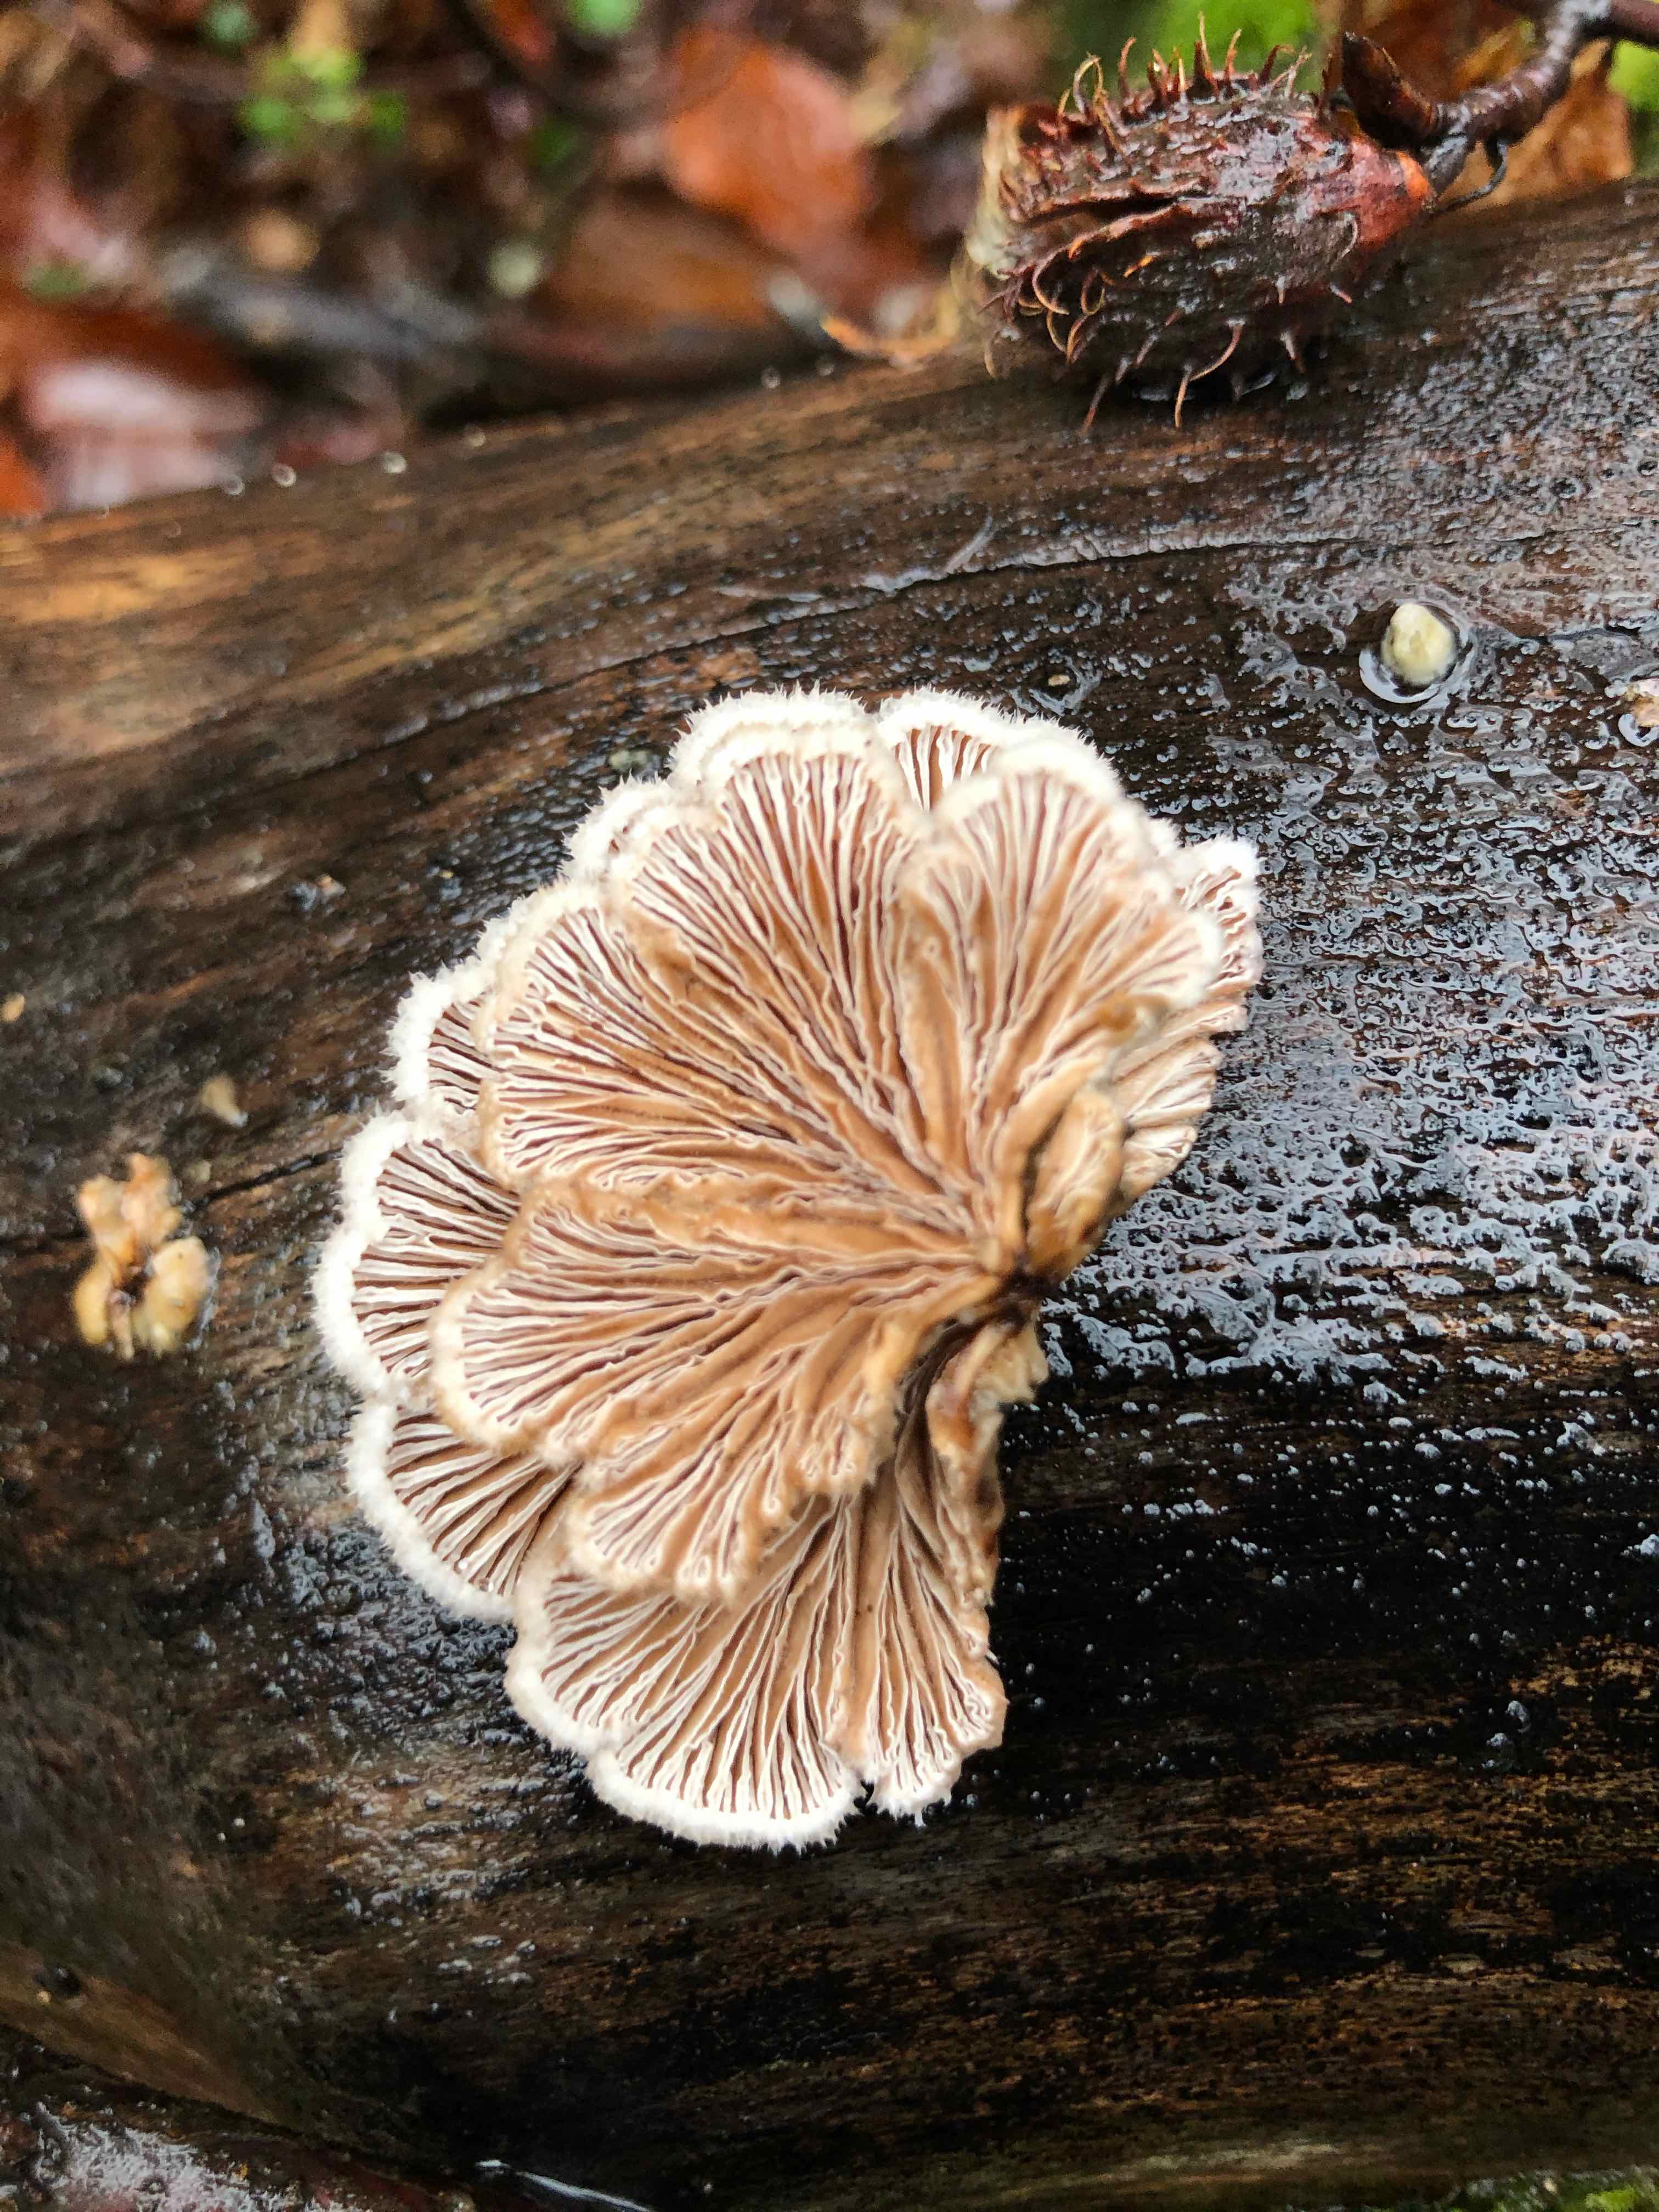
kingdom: Fungi
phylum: Basidiomycota
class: Agaricomycetes
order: Agaricales
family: Schizophyllaceae
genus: Schizophyllum
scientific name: Schizophyllum commune
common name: kløvblad
